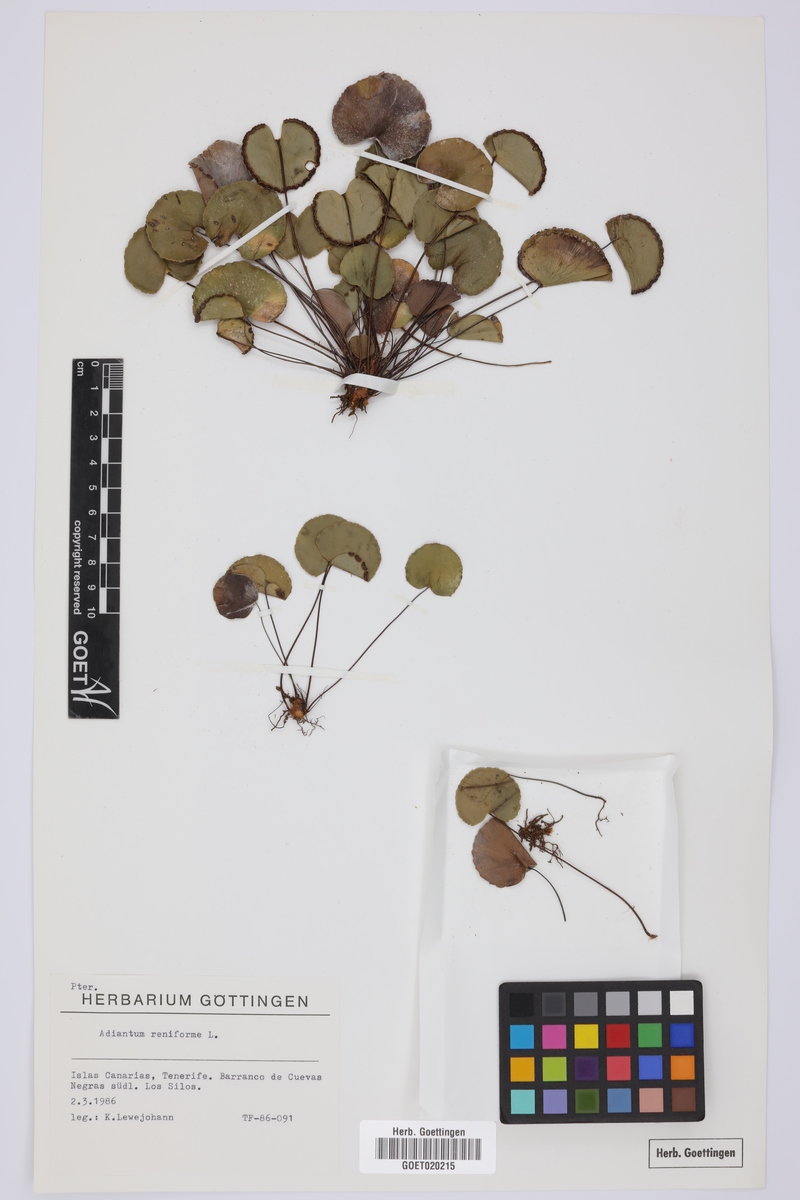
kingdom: Plantae
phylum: Tracheophyta
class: Polypodiopsida
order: Polypodiales
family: Pteridaceae
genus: Adiantum
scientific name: Adiantum reniforme
